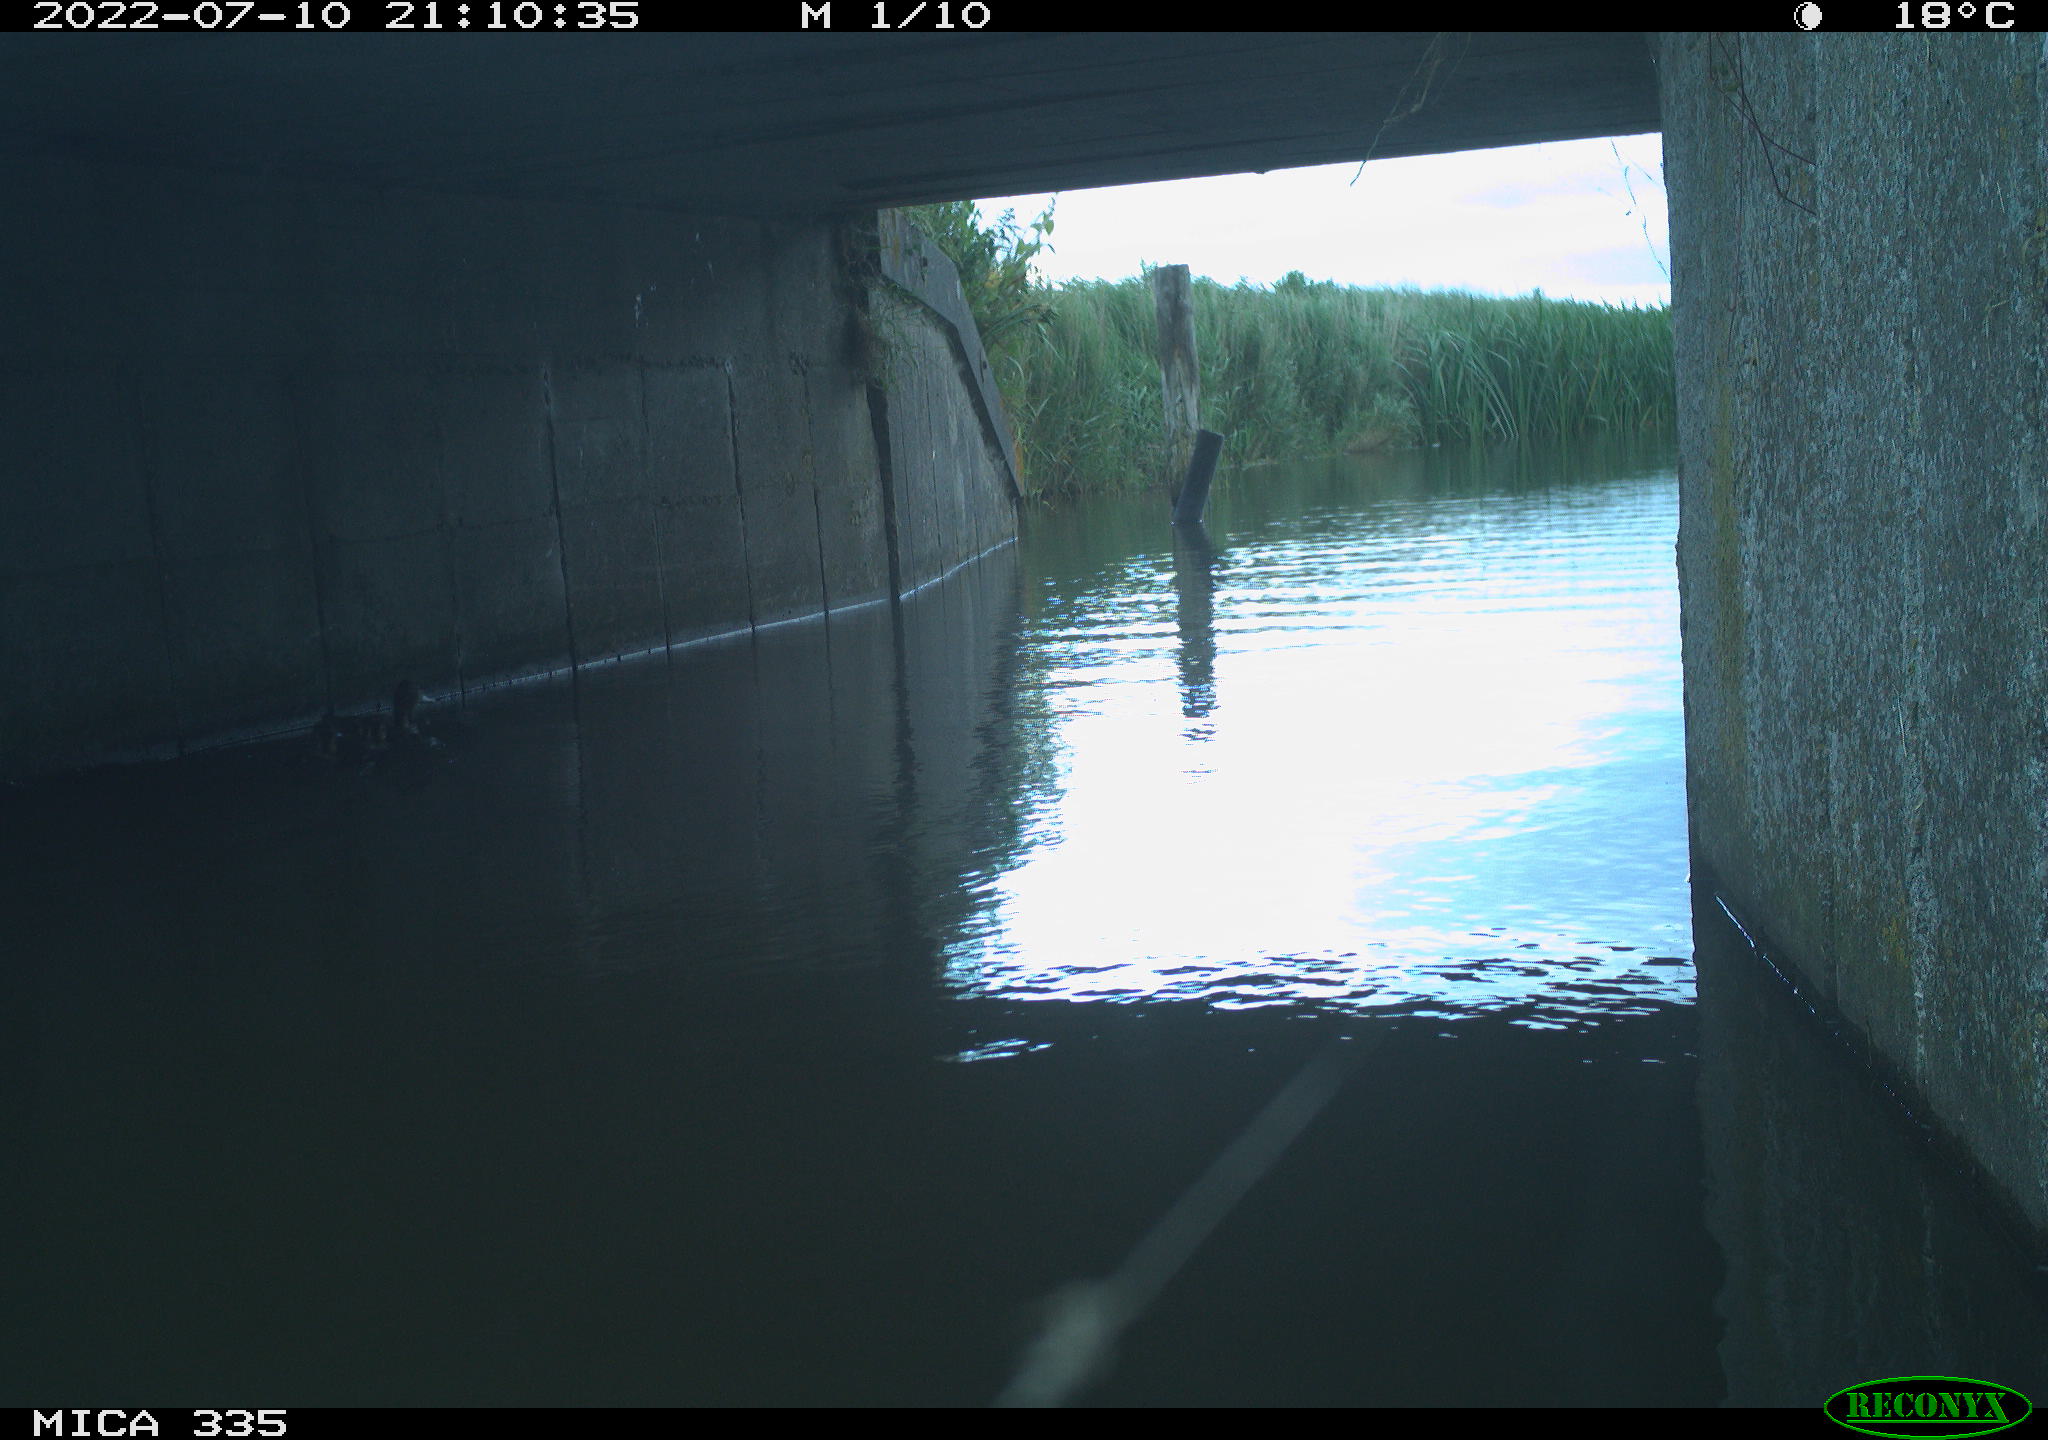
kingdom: Animalia
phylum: Chordata
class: Aves
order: Anseriformes
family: Anatidae
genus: Anas
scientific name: Anas platyrhynchos
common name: Mallard
